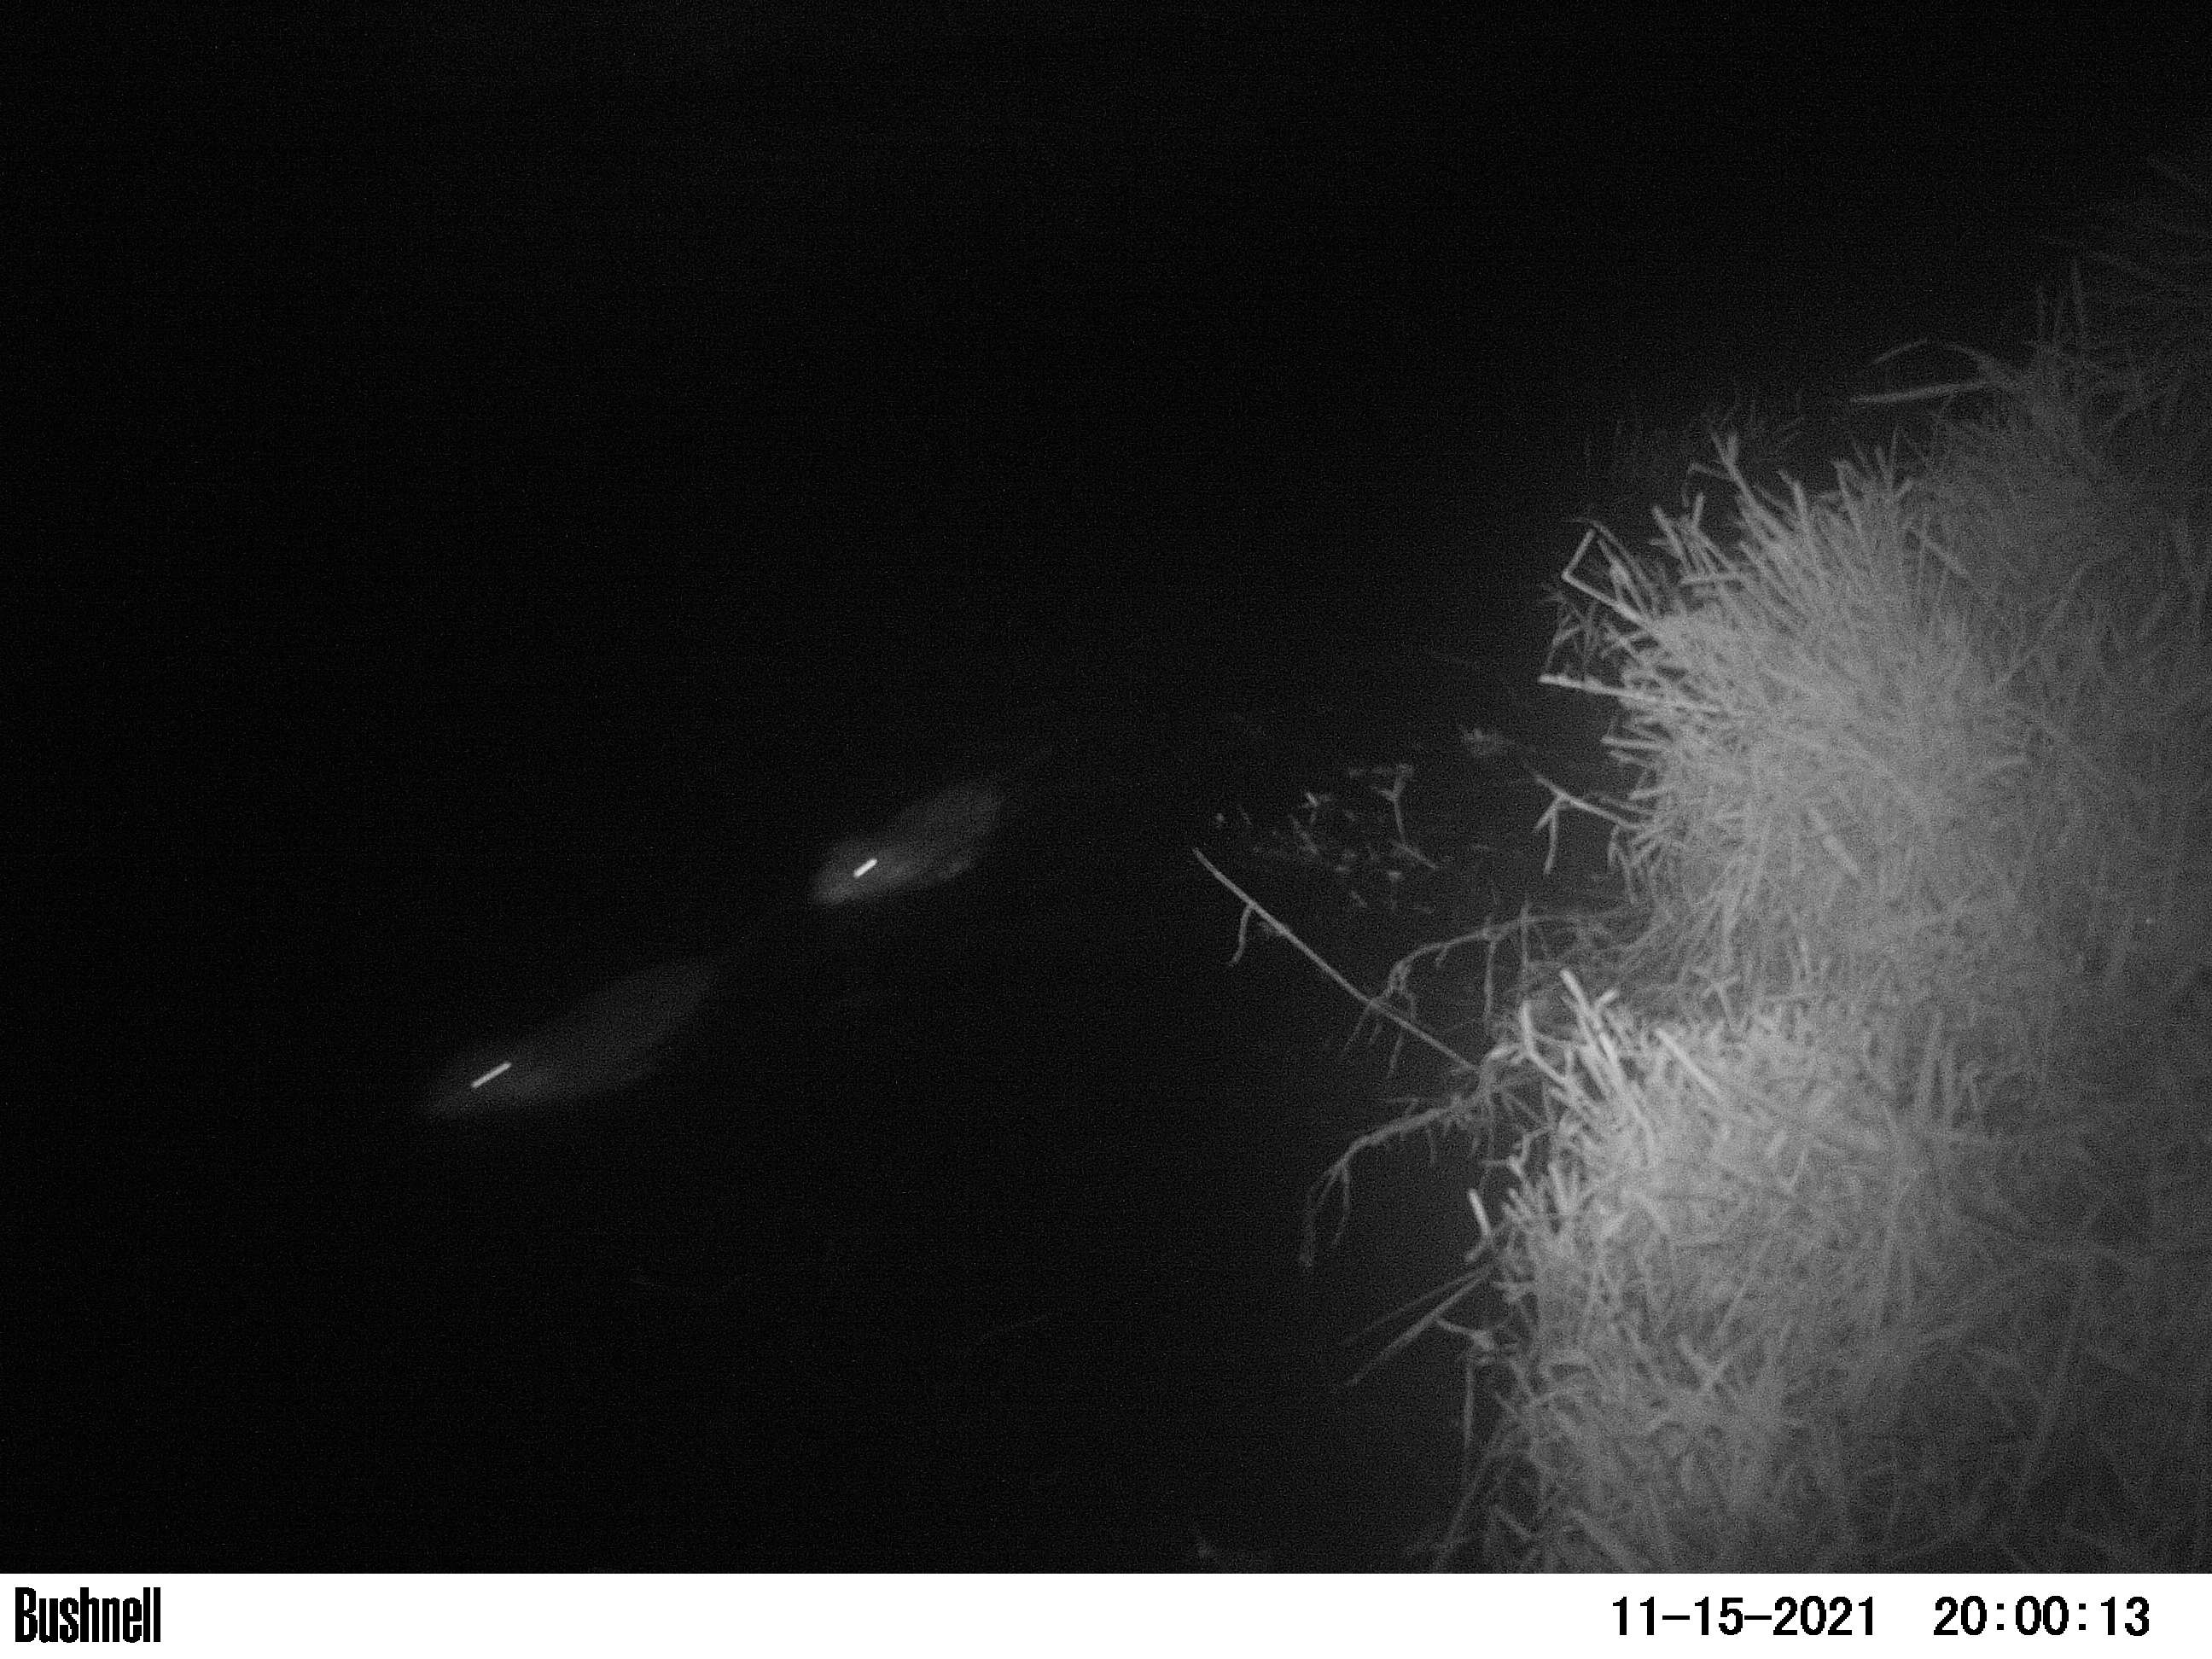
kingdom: Animalia
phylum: Chordata
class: Mammalia
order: Rodentia
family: Muridae
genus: Rattus
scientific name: Rattus norvegicus
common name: Brown rat
